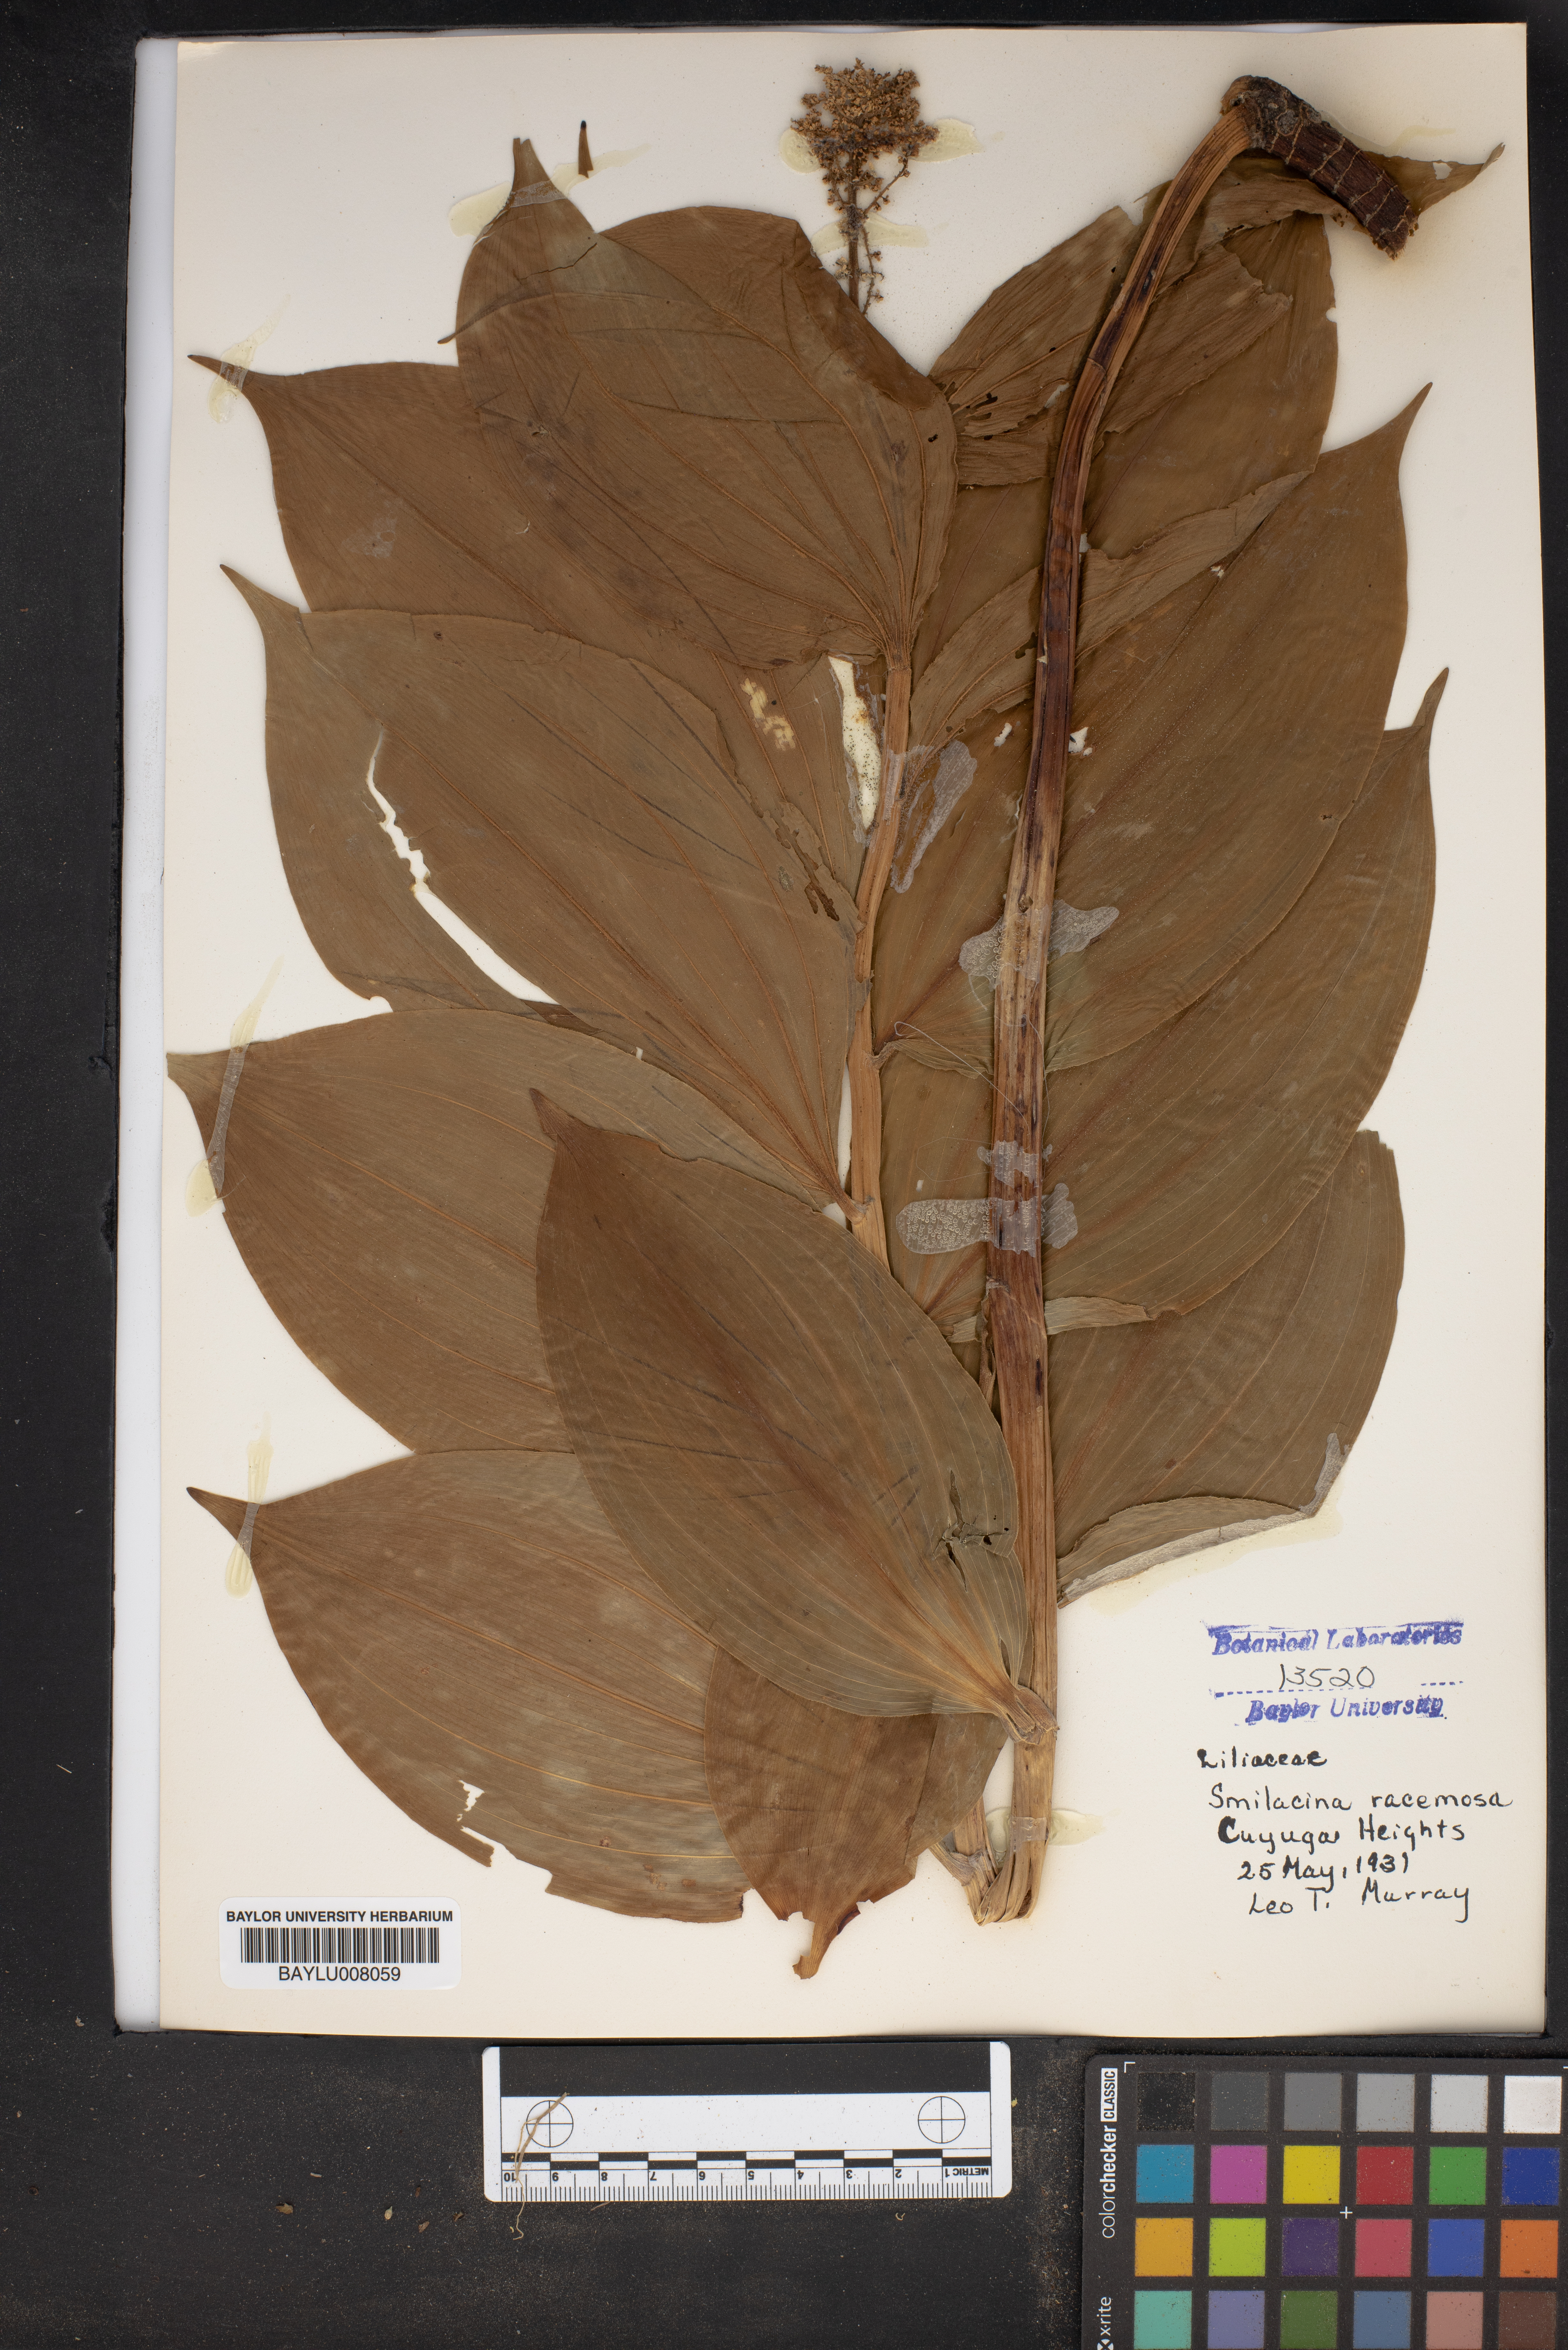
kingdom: Plantae
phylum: Tracheophyta
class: Liliopsida
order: Asparagales
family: Asparagaceae
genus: Maianthemum
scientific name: Maianthemum racemosum
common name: False spikenard
